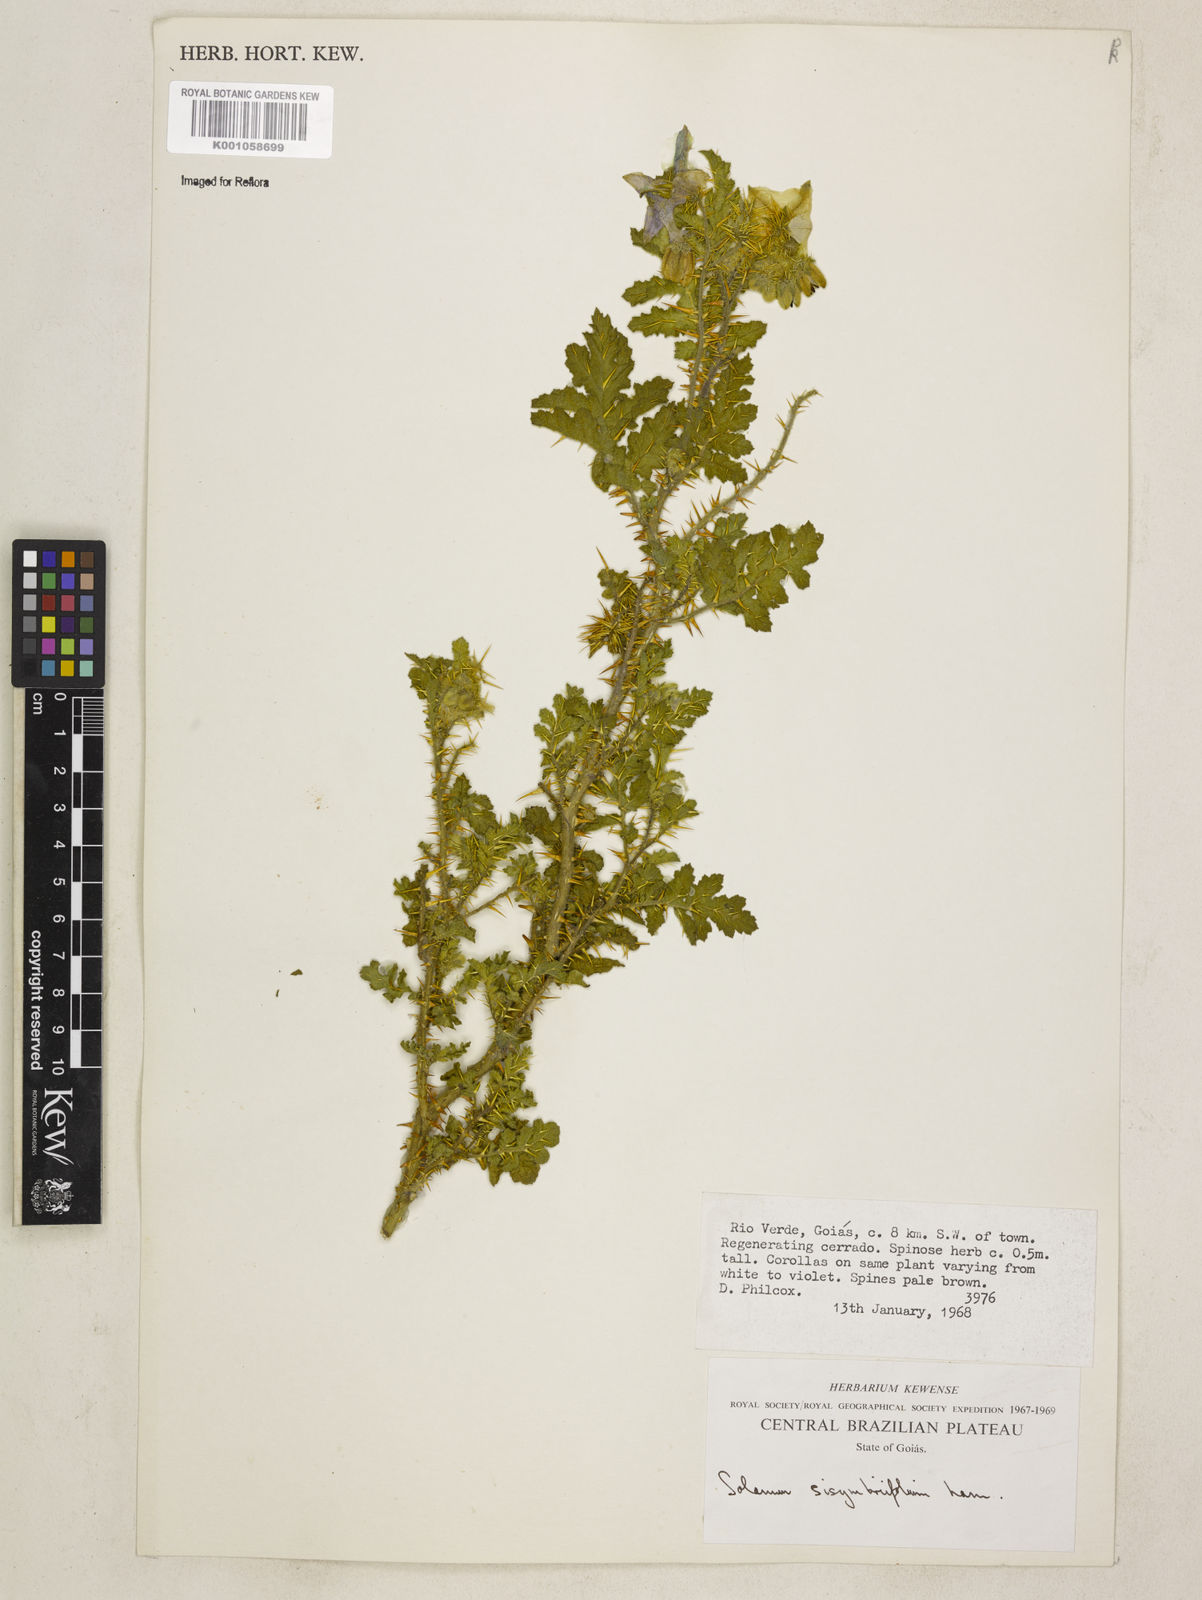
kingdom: Plantae
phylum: Tracheophyta
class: Magnoliopsida
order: Solanales
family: Solanaceae
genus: Solanum
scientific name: Solanum sisymbriifolium
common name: Red buffalo-bur
